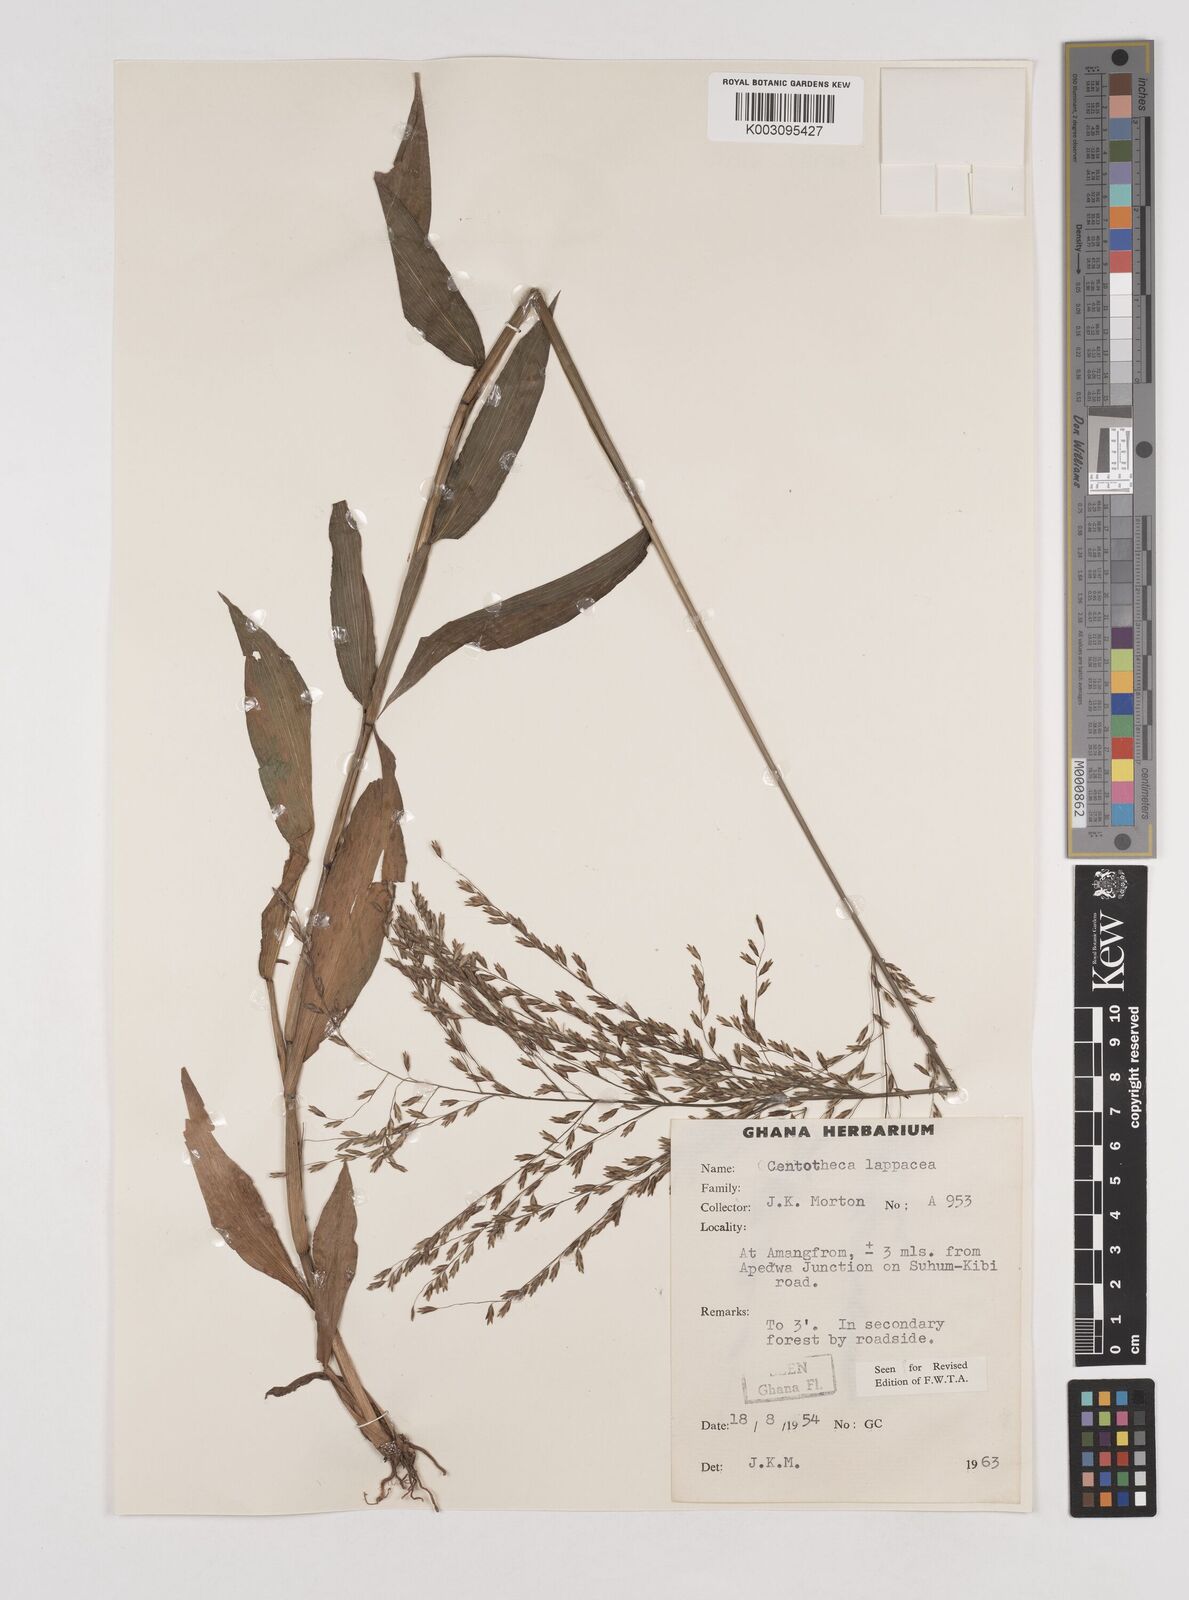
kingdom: Plantae
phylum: Tracheophyta
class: Liliopsida
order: Poales
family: Poaceae
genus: Centotheca
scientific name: Centotheca lappacea
